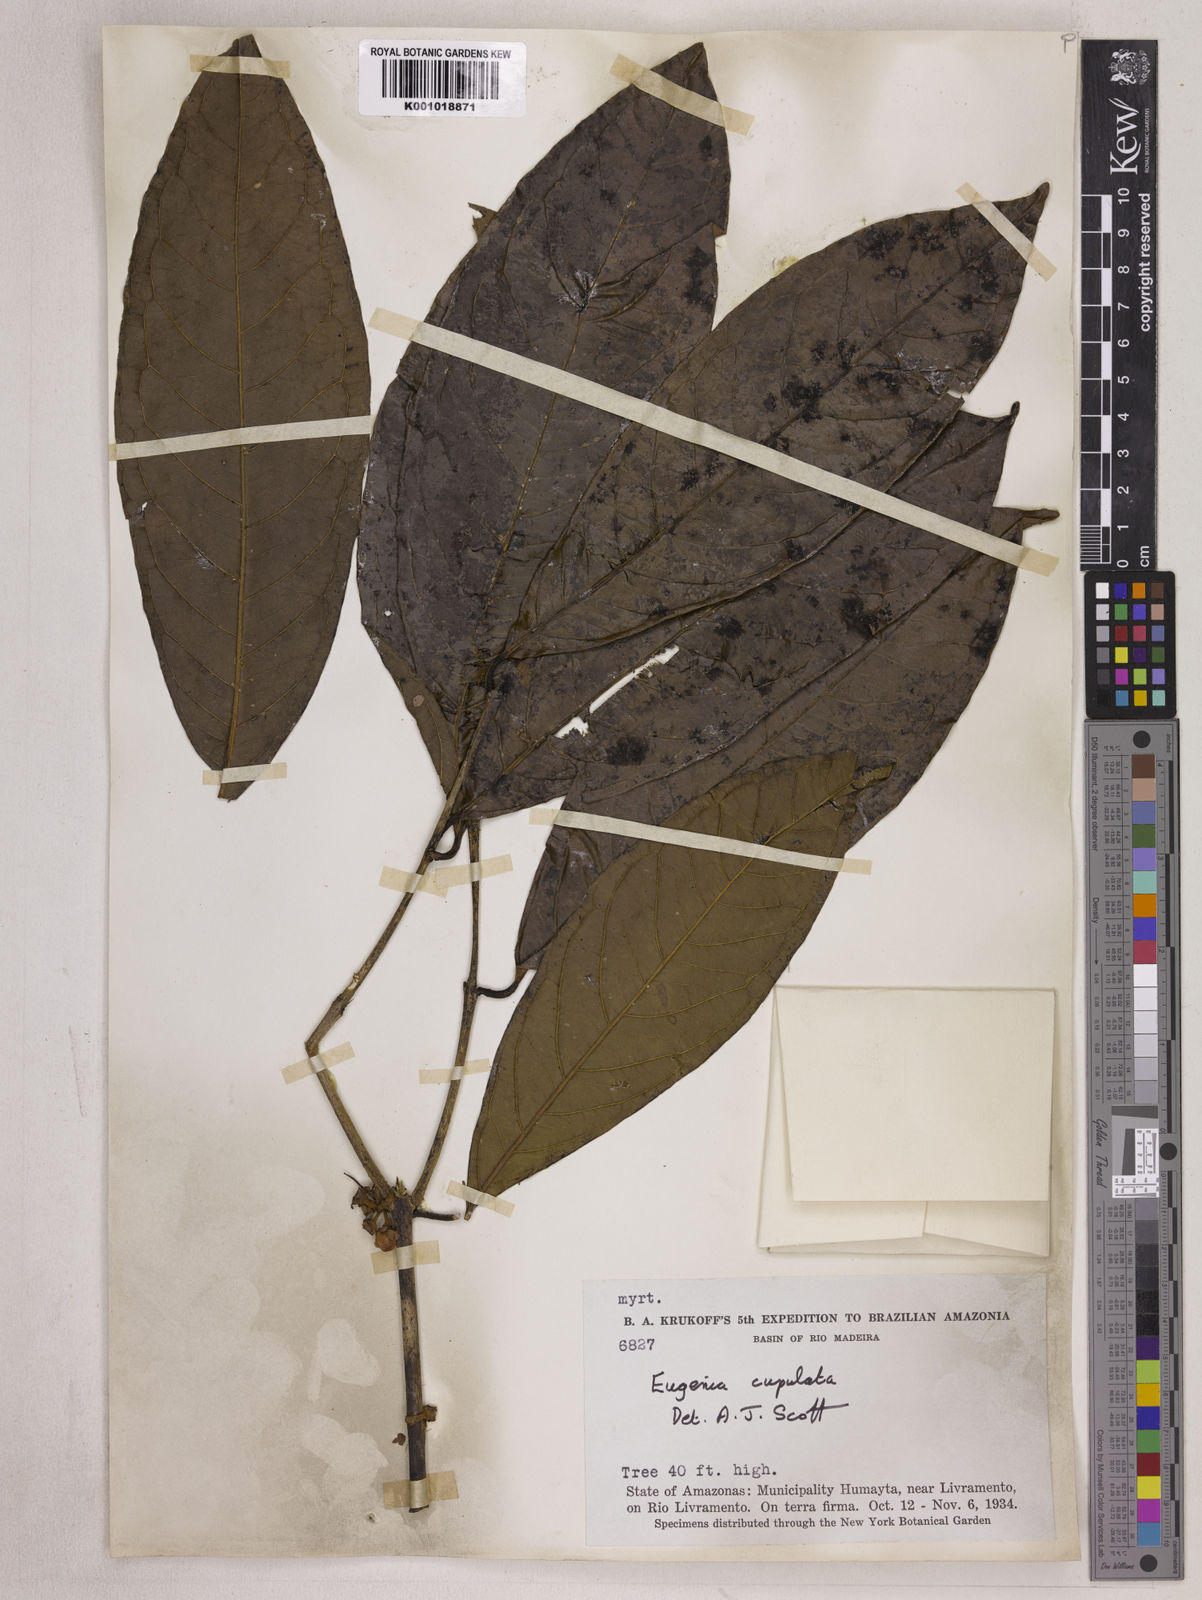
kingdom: Plantae
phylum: Tracheophyta
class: Magnoliopsida
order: Myrtales
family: Myrtaceae
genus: Eugenia
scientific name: Eugenia glomeruliflora
